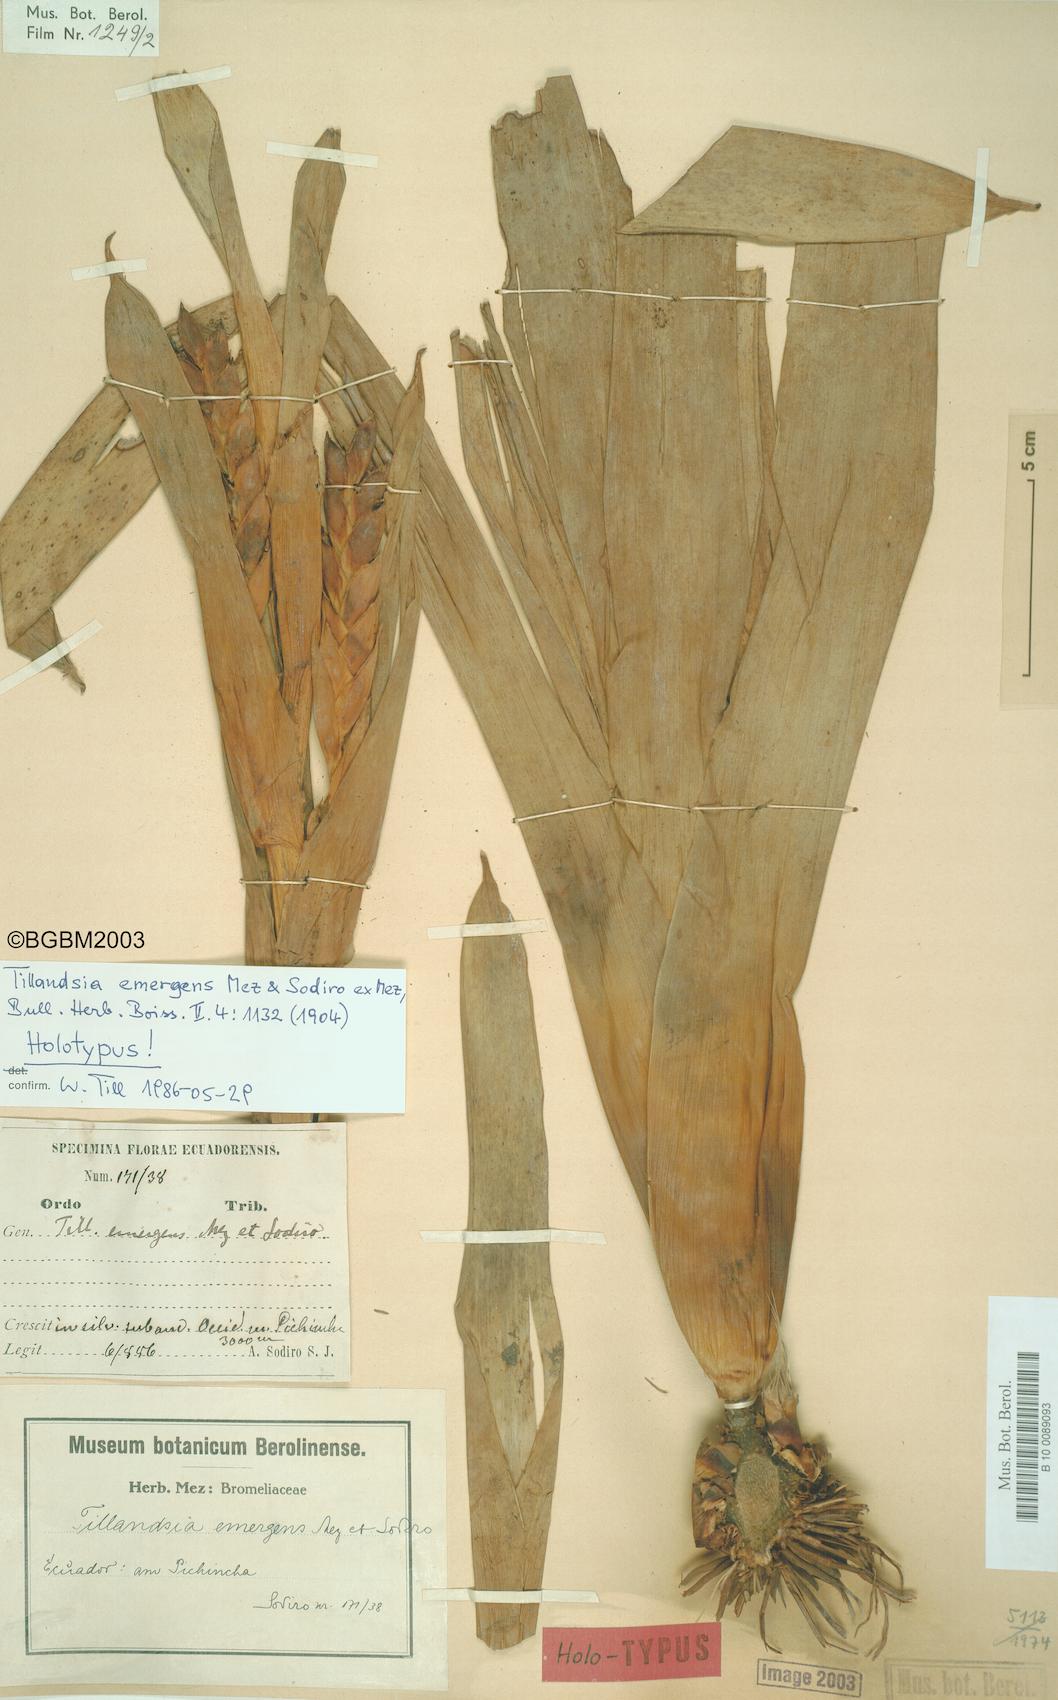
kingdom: Plantae
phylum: Tracheophyta
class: Liliopsida
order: Poales
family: Bromeliaceae
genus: Tillandsia
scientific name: Tillandsia emergens
